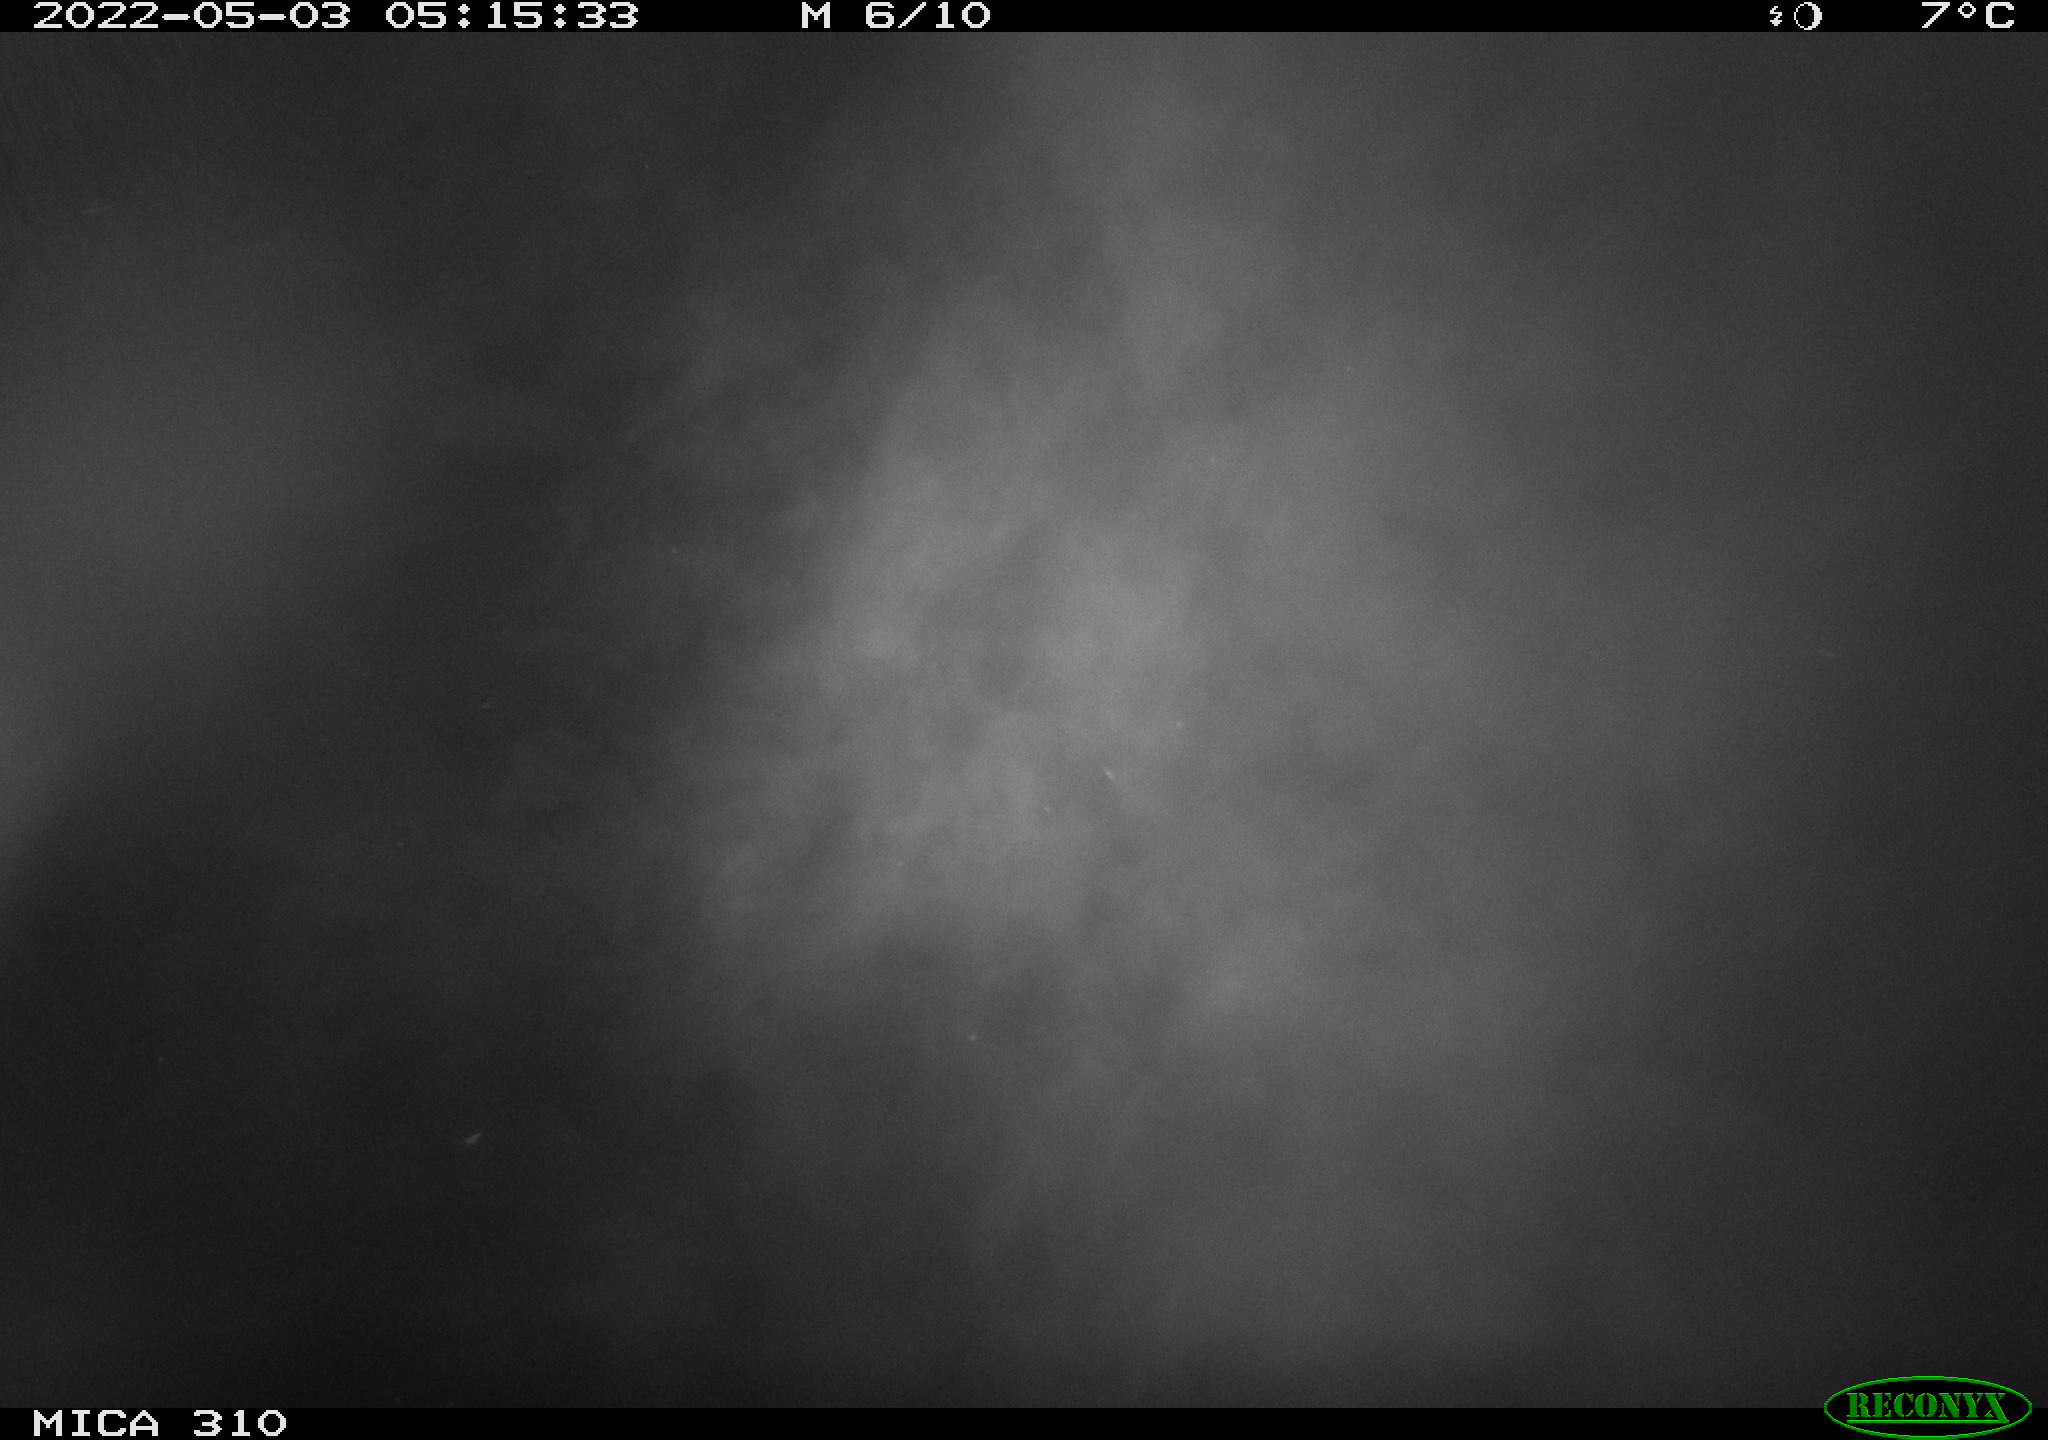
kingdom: Animalia
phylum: Chordata
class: Aves
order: Gruiformes
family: Rallidae
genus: Fulica
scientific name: Fulica atra
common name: Eurasian coot
